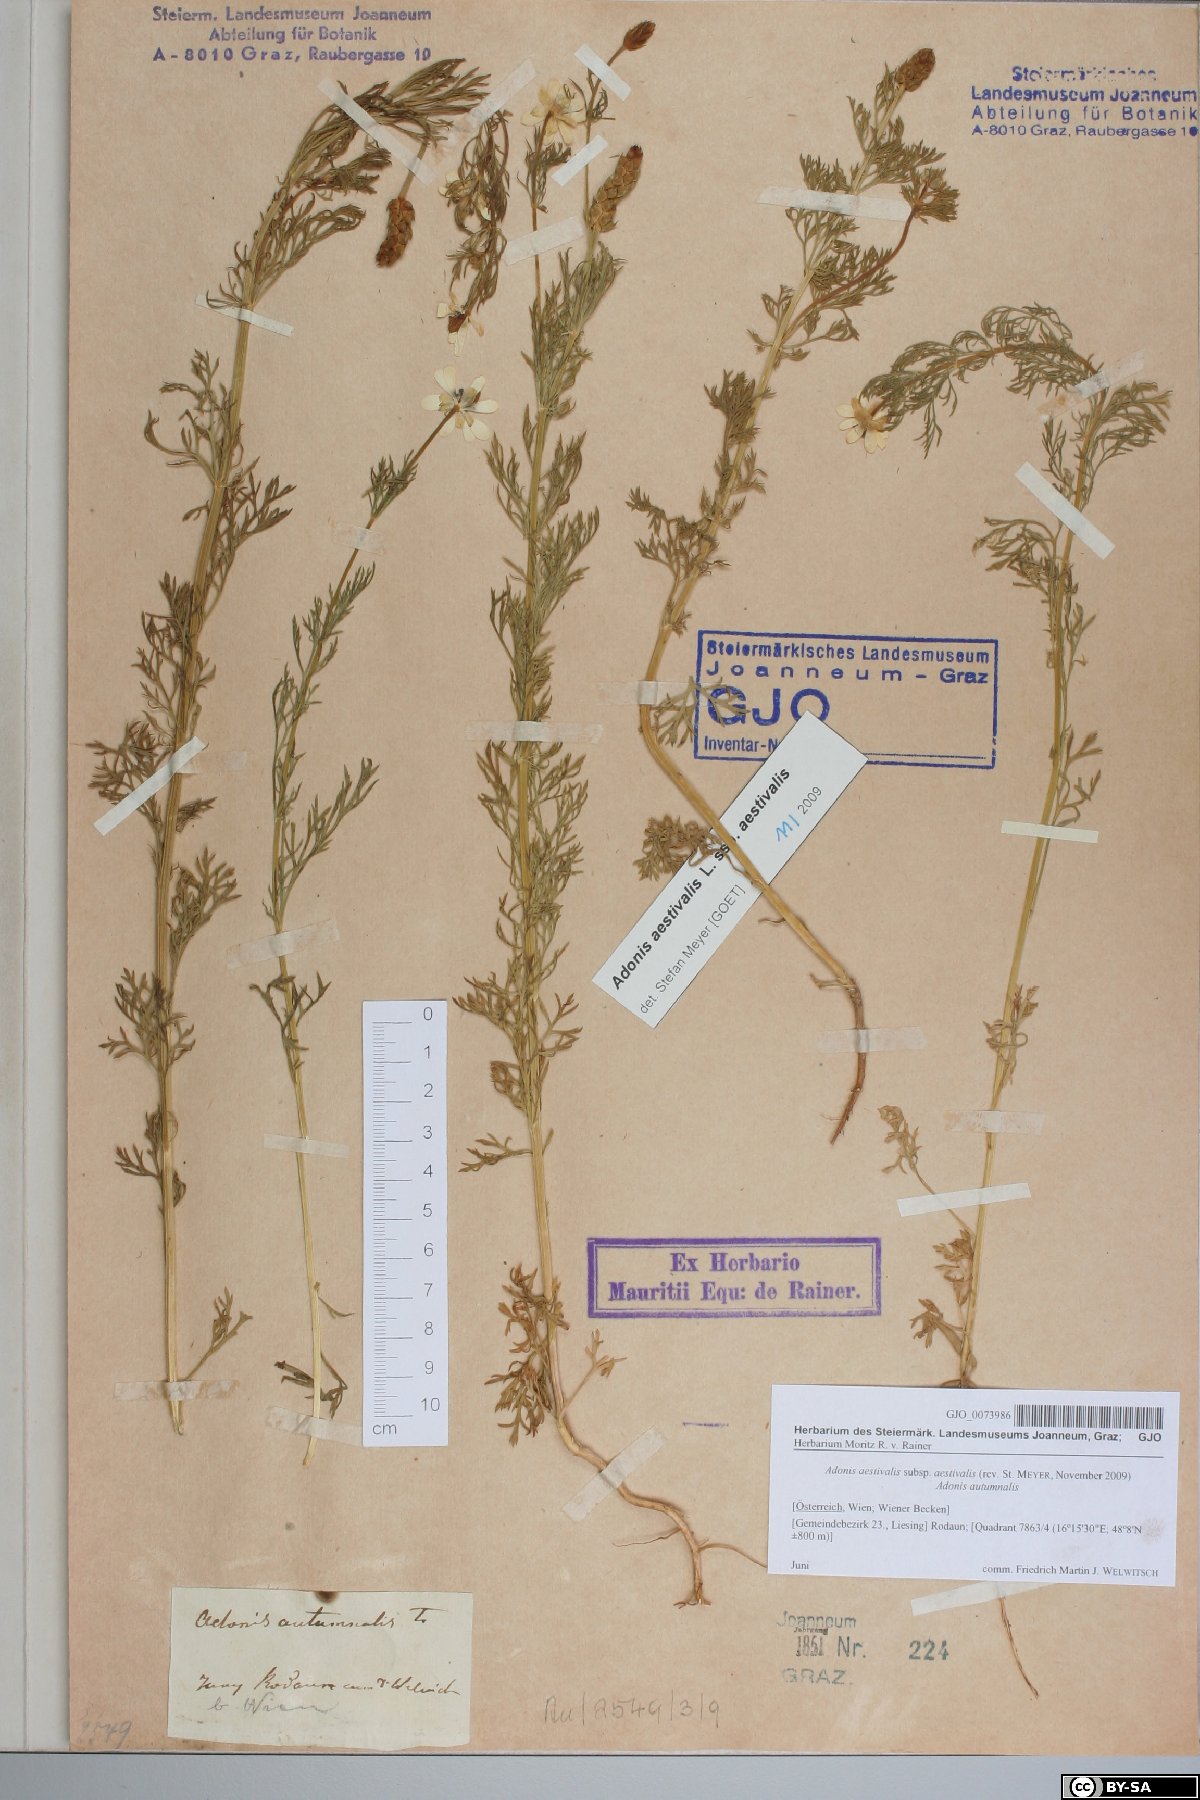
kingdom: Plantae
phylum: Tracheophyta
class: Magnoliopsida
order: Ranunculales
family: Ranunculaceae
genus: Adonis
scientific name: Adonis aestivalis
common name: Summer pheasant's-eye
